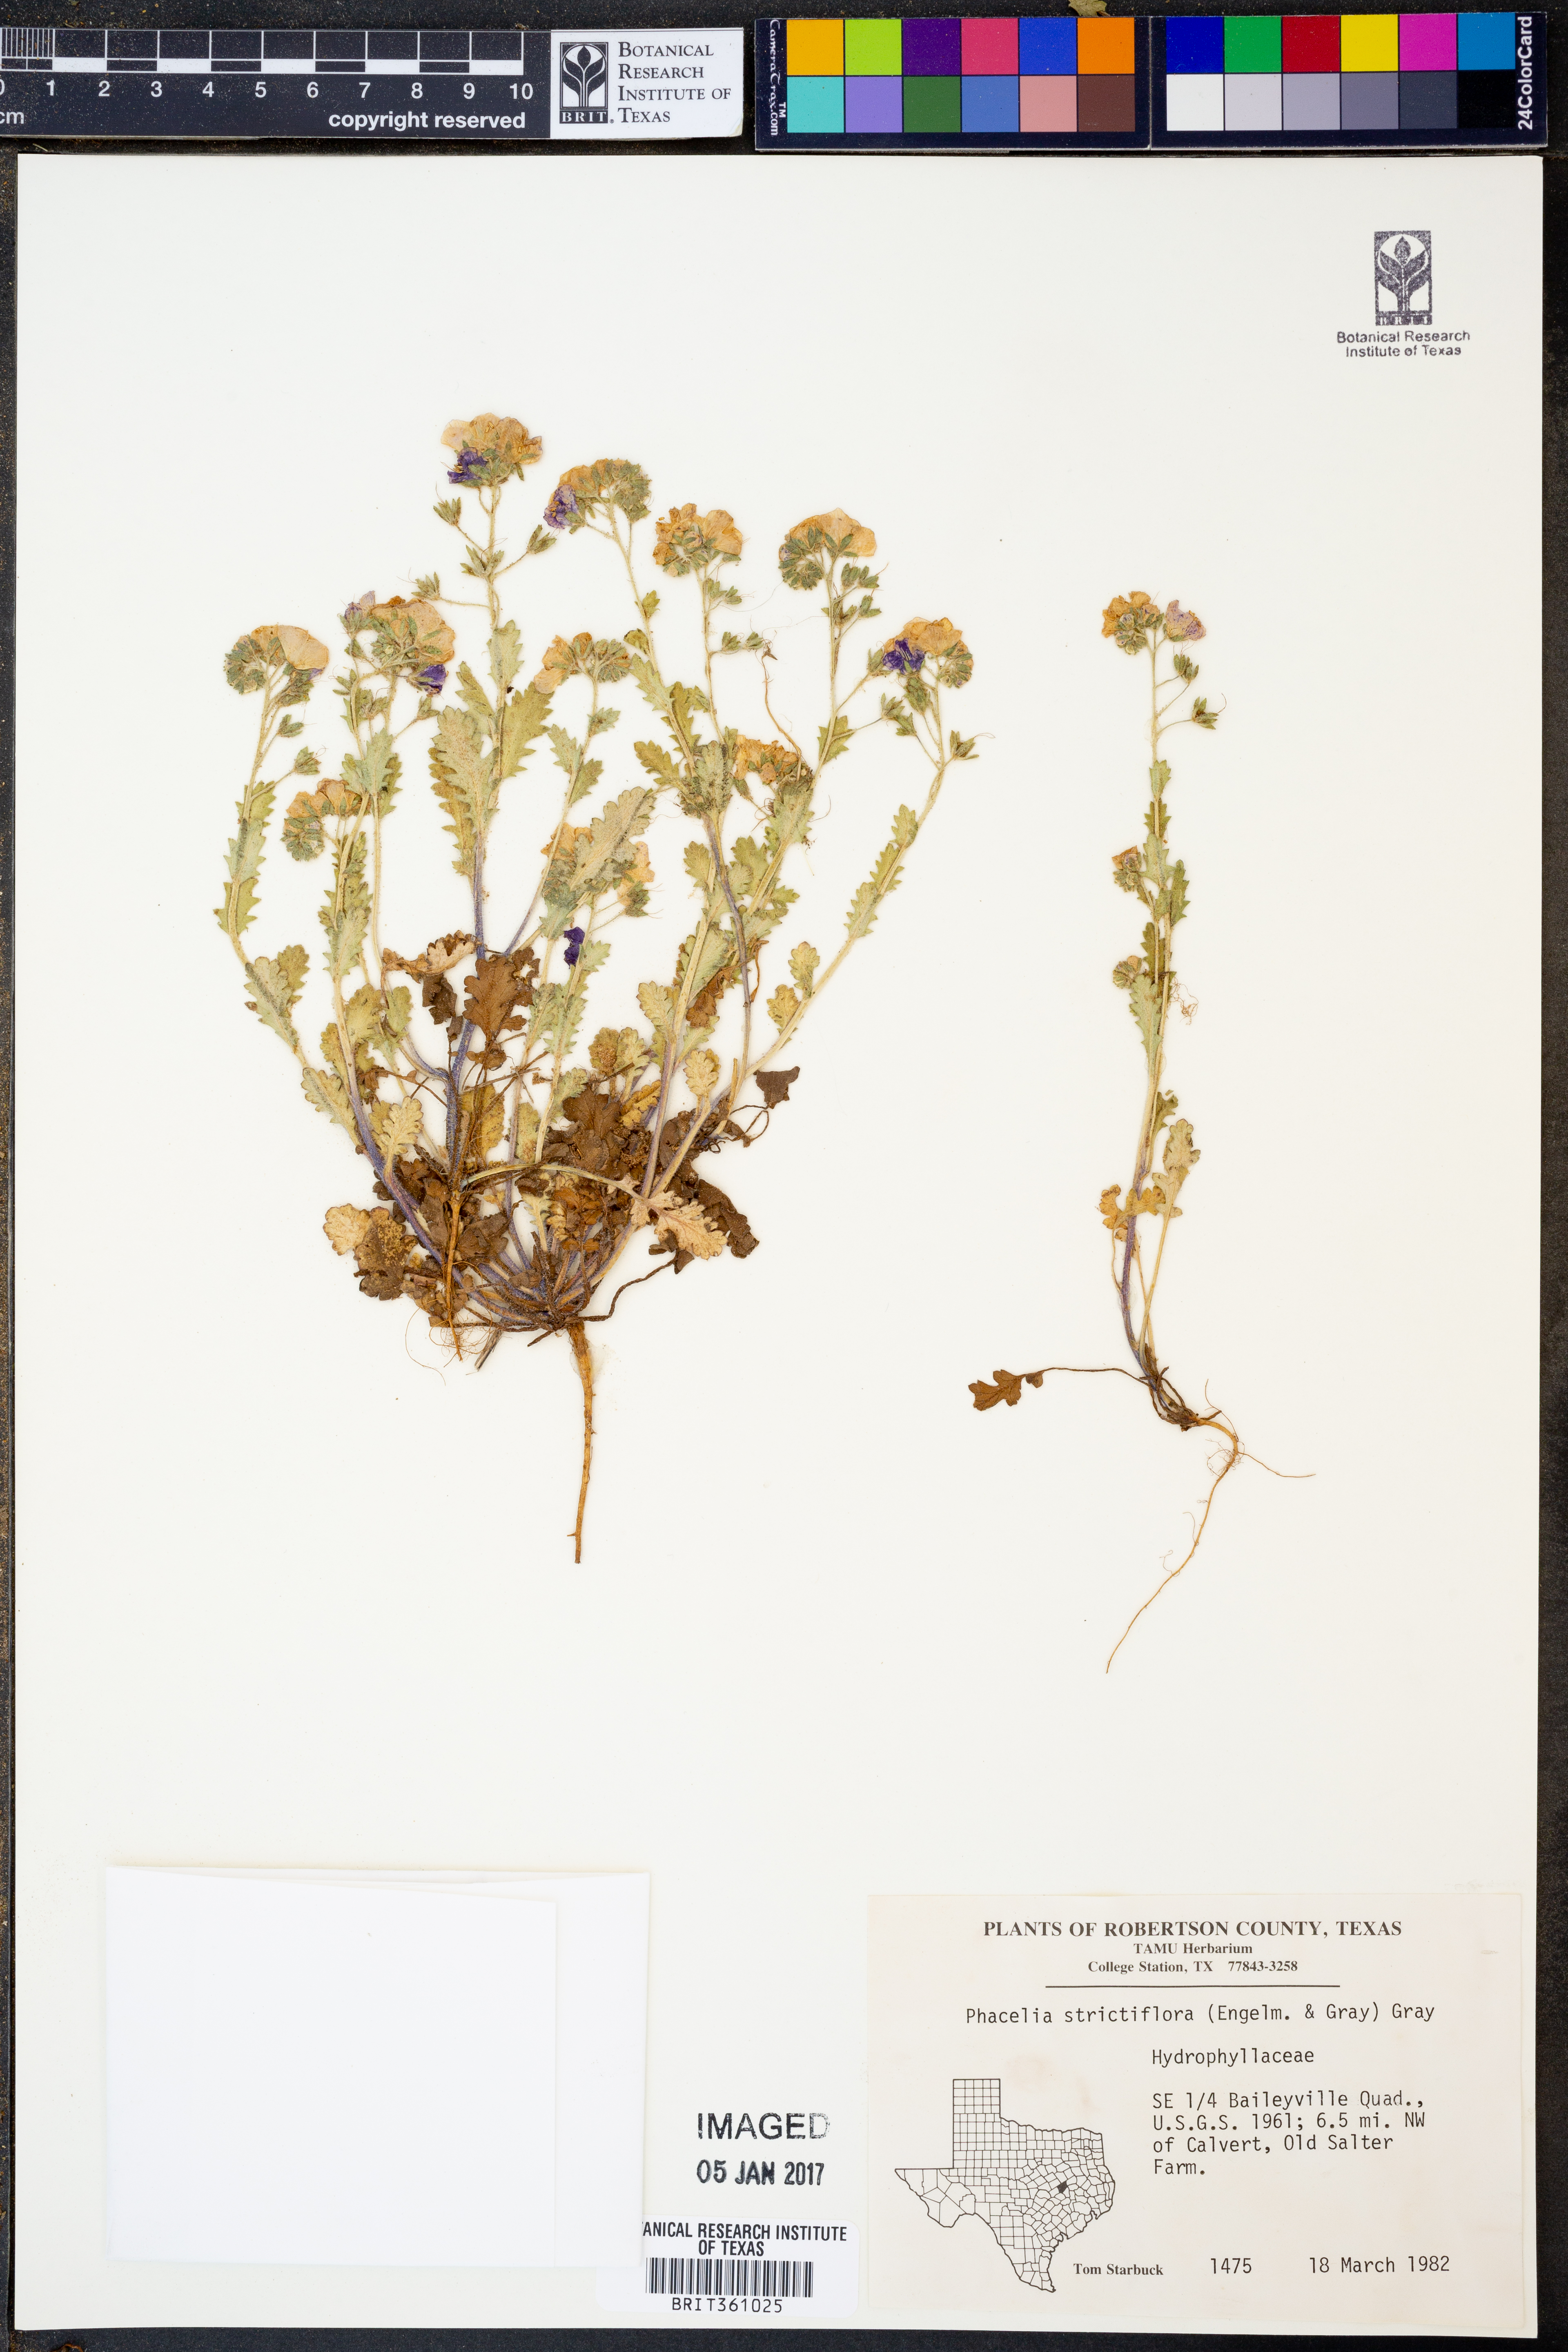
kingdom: Plantae
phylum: Tracheophyta
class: Magnoliopsida
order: Boraginales
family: Hydrophyllaceae
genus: Phacelia
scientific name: Phacelia strictiflora
